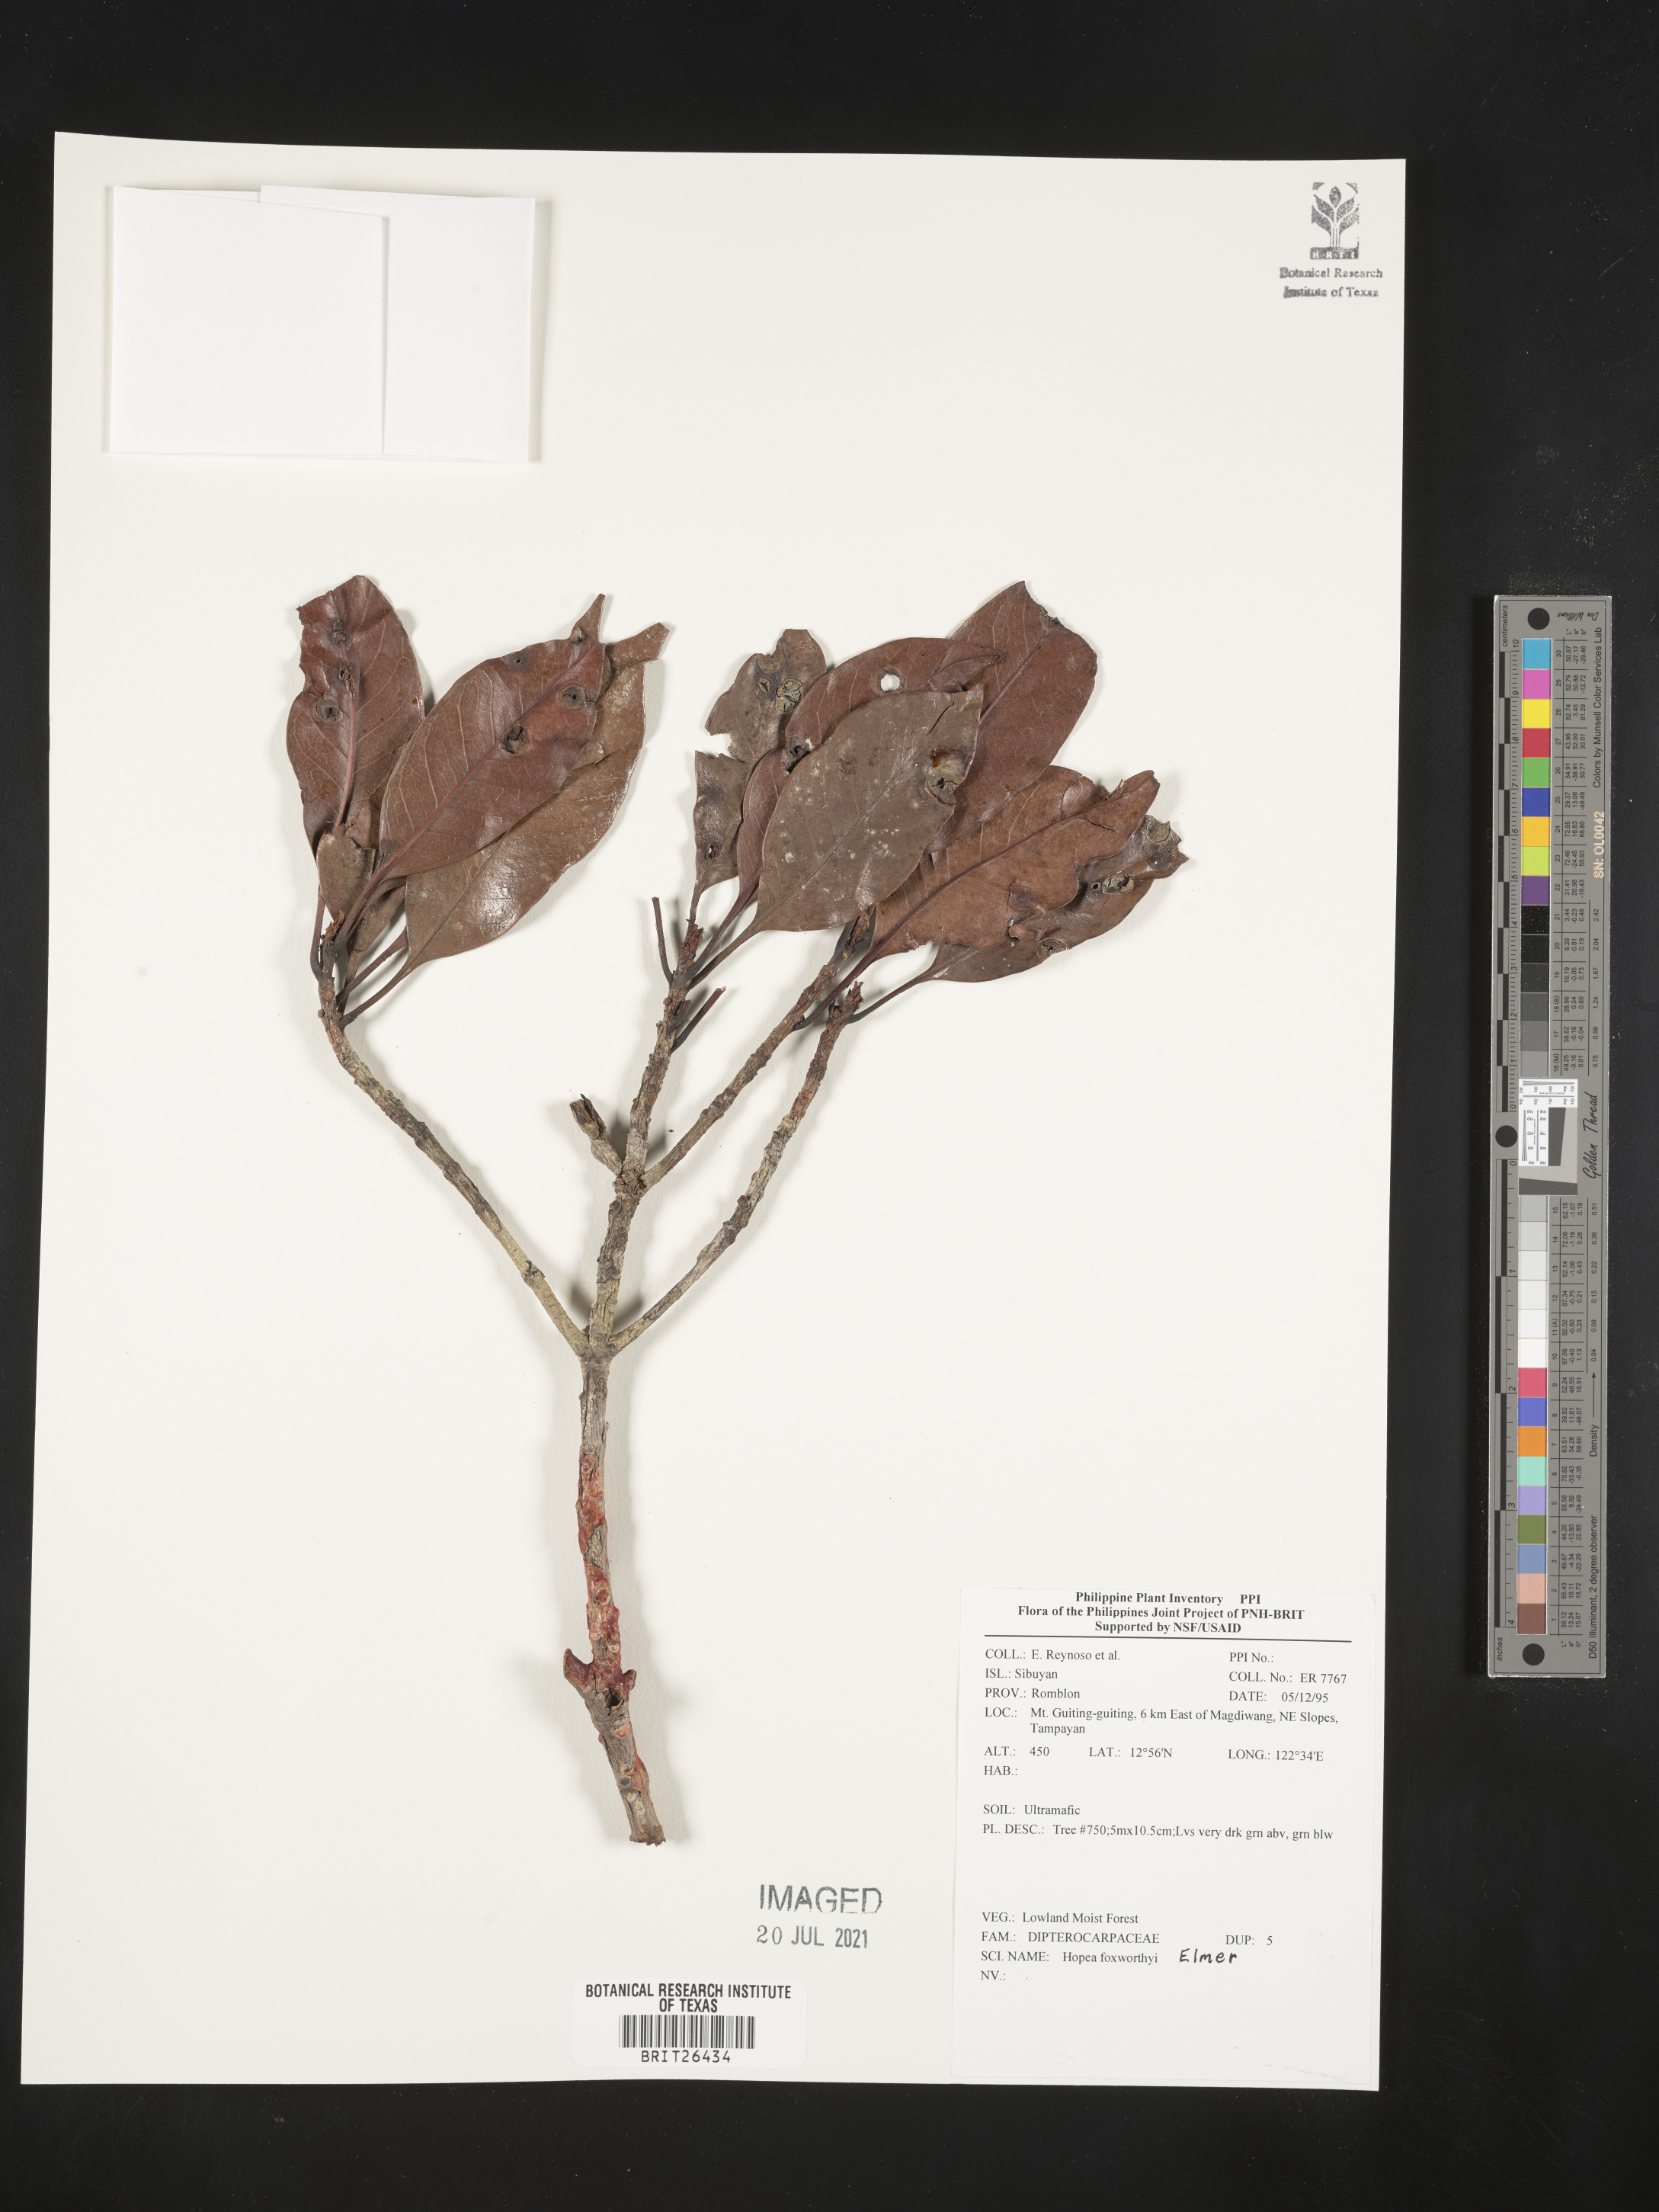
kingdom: Plantae
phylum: Tracheophyta
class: Magnoliopsida
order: Malvales
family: Dipterocarpaceae
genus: Hopea
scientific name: Hopea foxworthyi
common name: Dalingdingan
